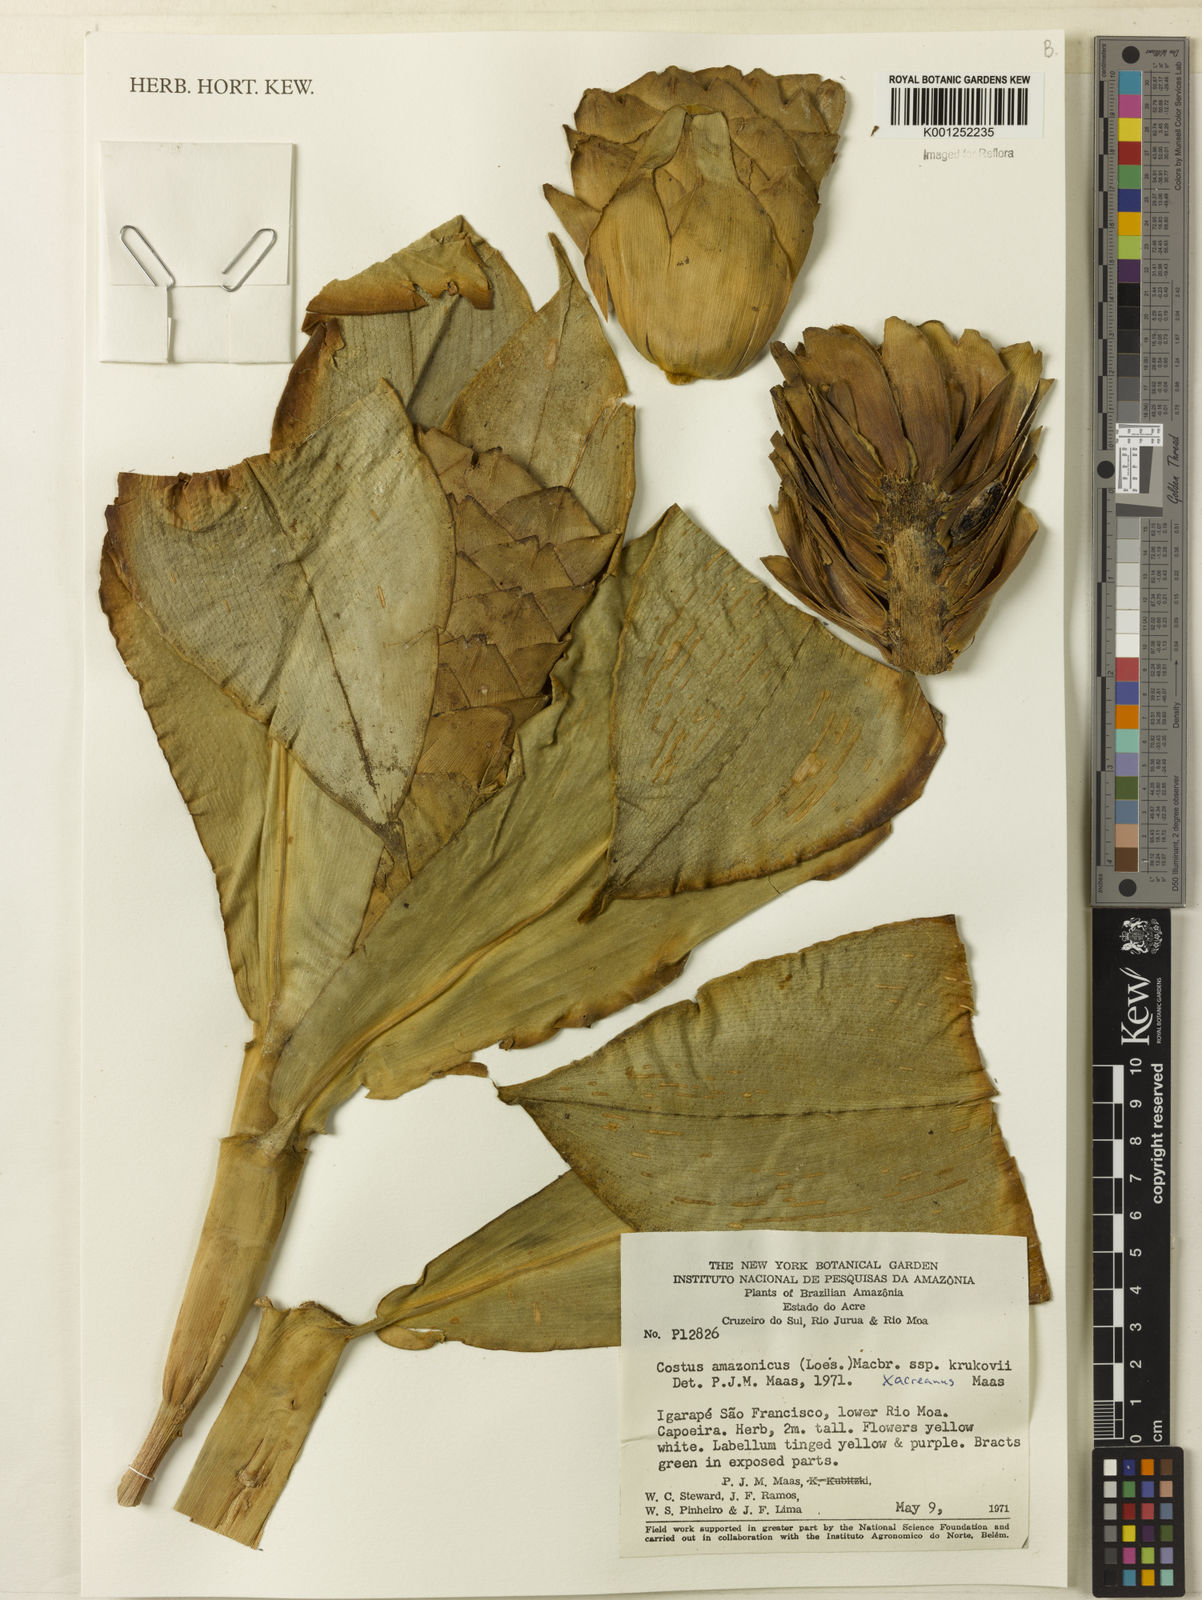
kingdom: Plantae
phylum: Tracheophyta
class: Liliopsida
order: Zingiberales
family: Costaceae
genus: Costus
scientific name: Costus amazonicus
